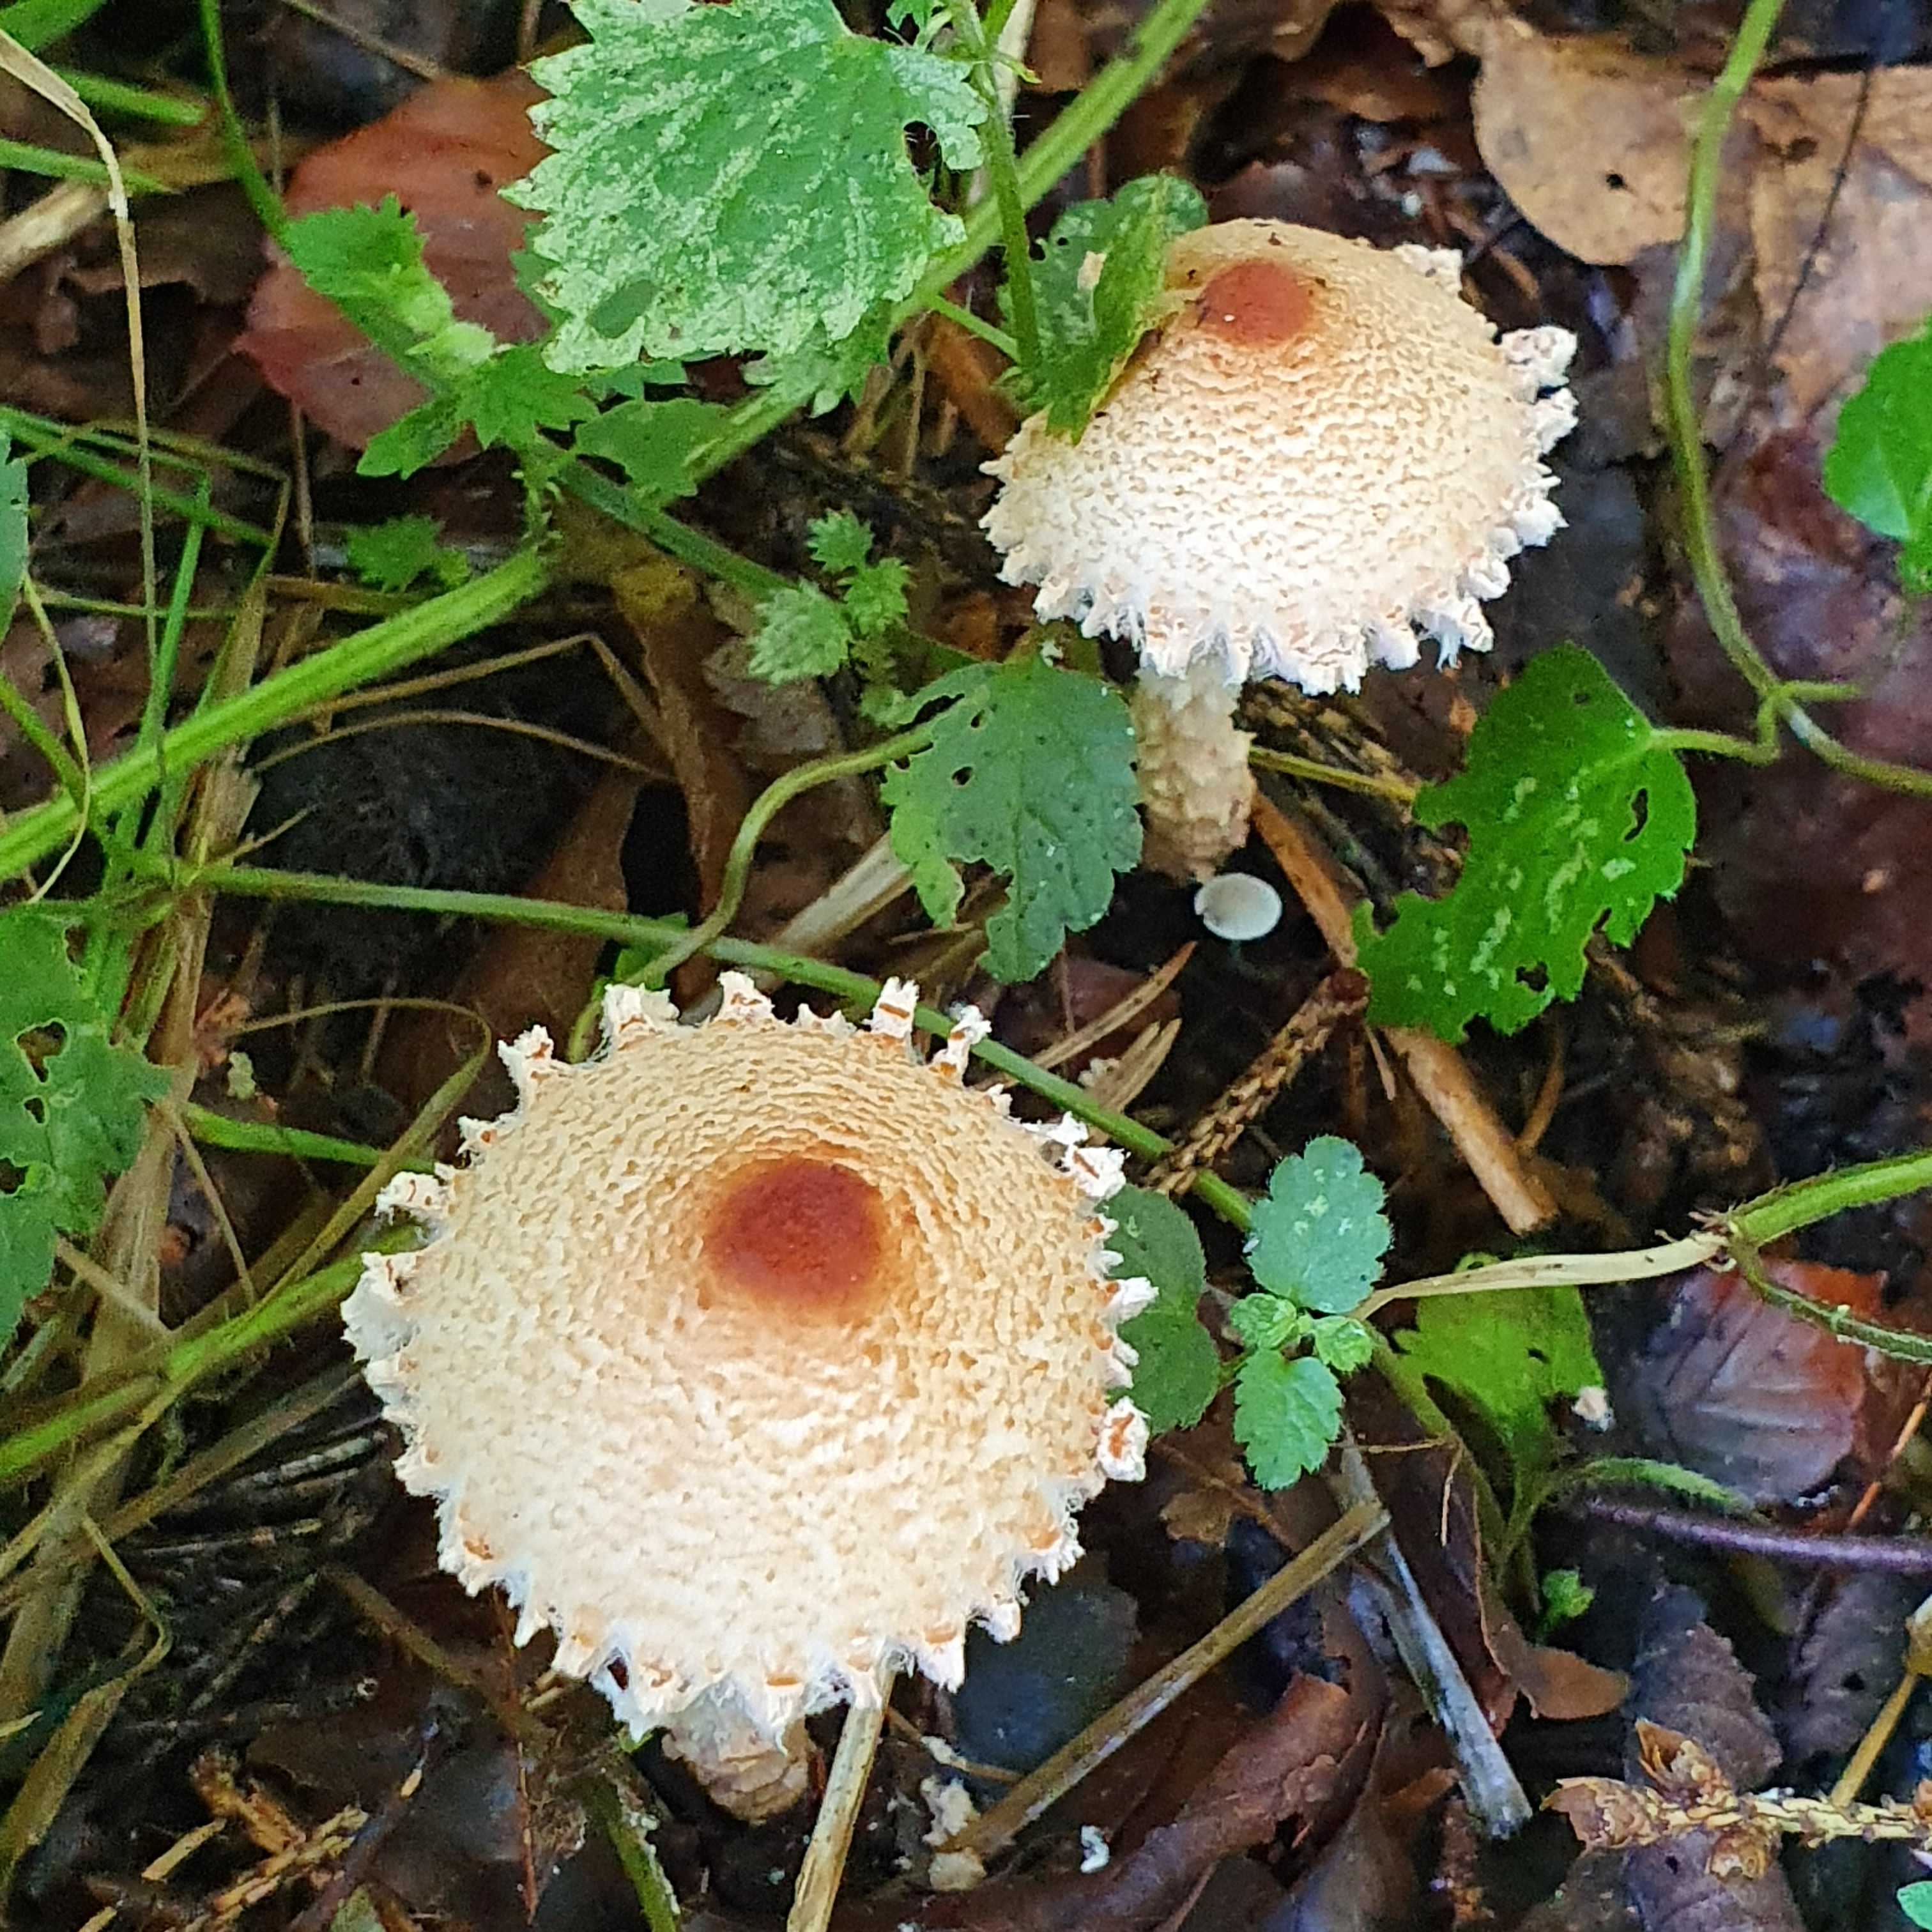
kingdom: Fungi
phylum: Basidiomycota
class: Agaricomycetes
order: Agaricales
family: Agaricaceae
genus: Lepiota
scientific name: Lepiota magnispora
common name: gulfnugget parasolhat
